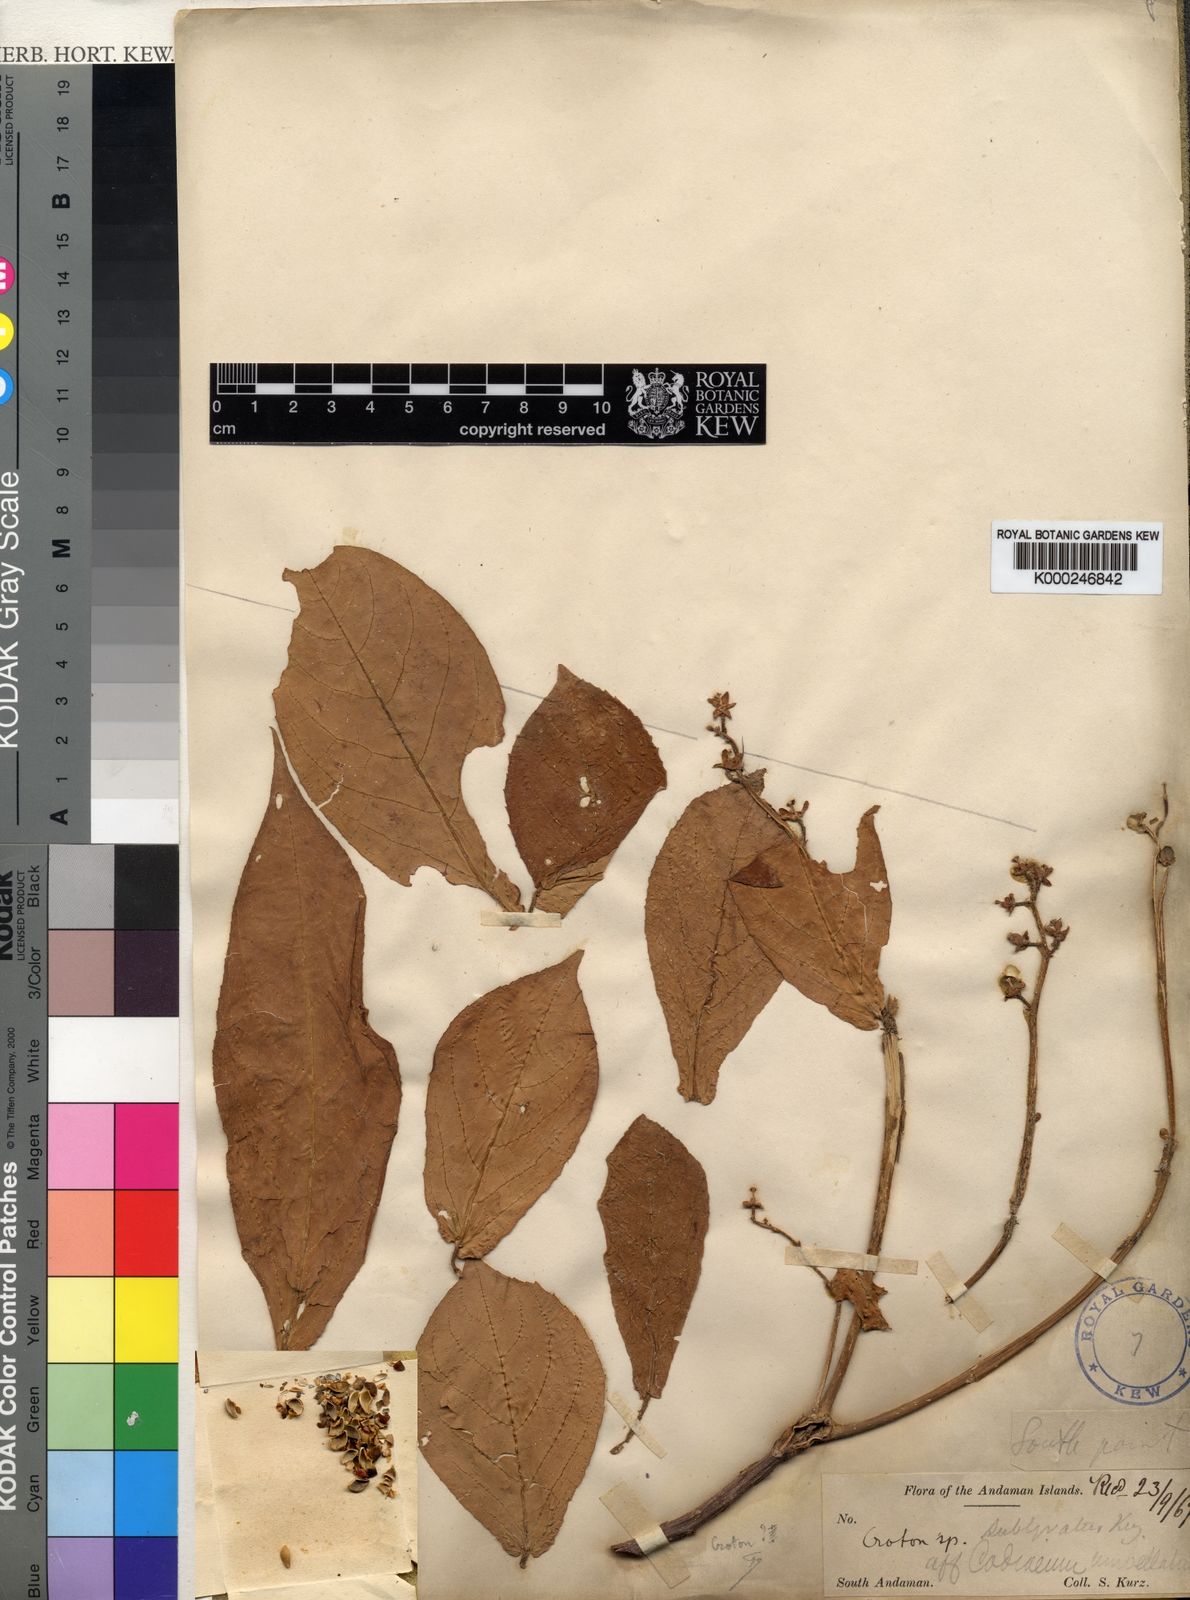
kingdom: Plantae
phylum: Tracheophyta
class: Magnoliopsida
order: Malpighiales
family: Euphorbiaceae
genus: Croton
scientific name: Croton sublyratus
